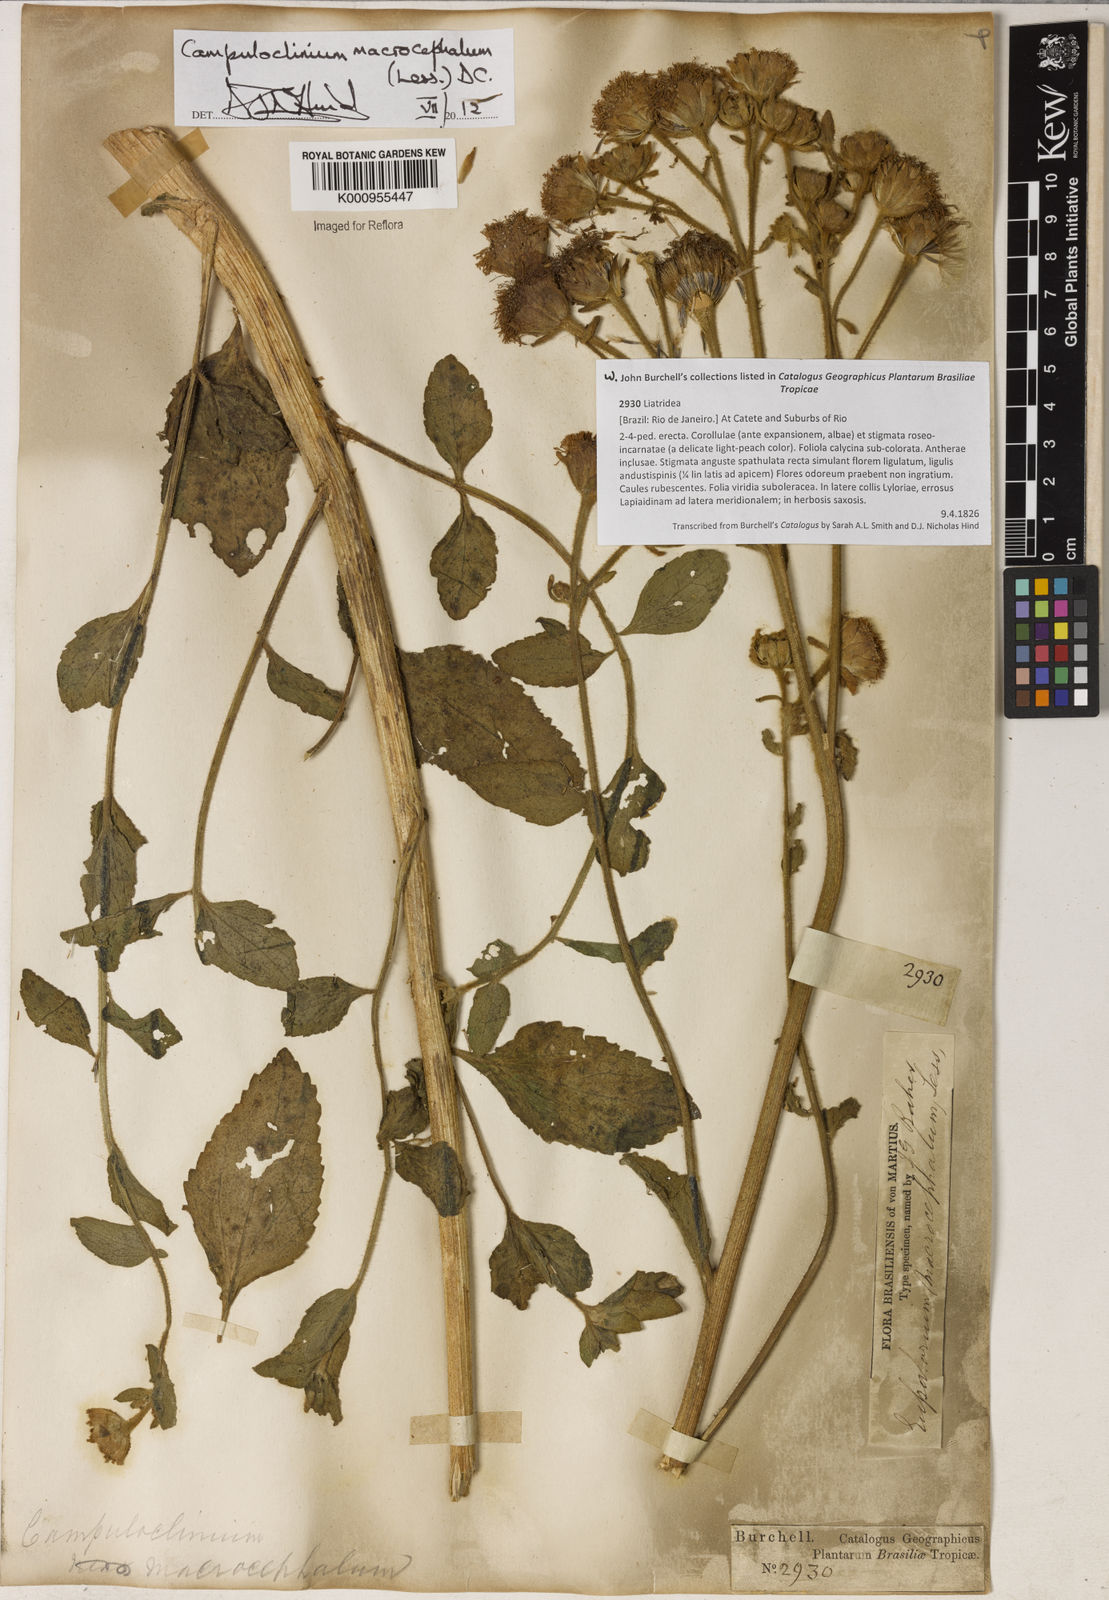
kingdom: Plantae
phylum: Tracheophyta
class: Magnoliopsida
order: Asterales
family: Asteraceae
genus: Campuloclinium
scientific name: Campuloclinium macrocephalum
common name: Pompomweed
